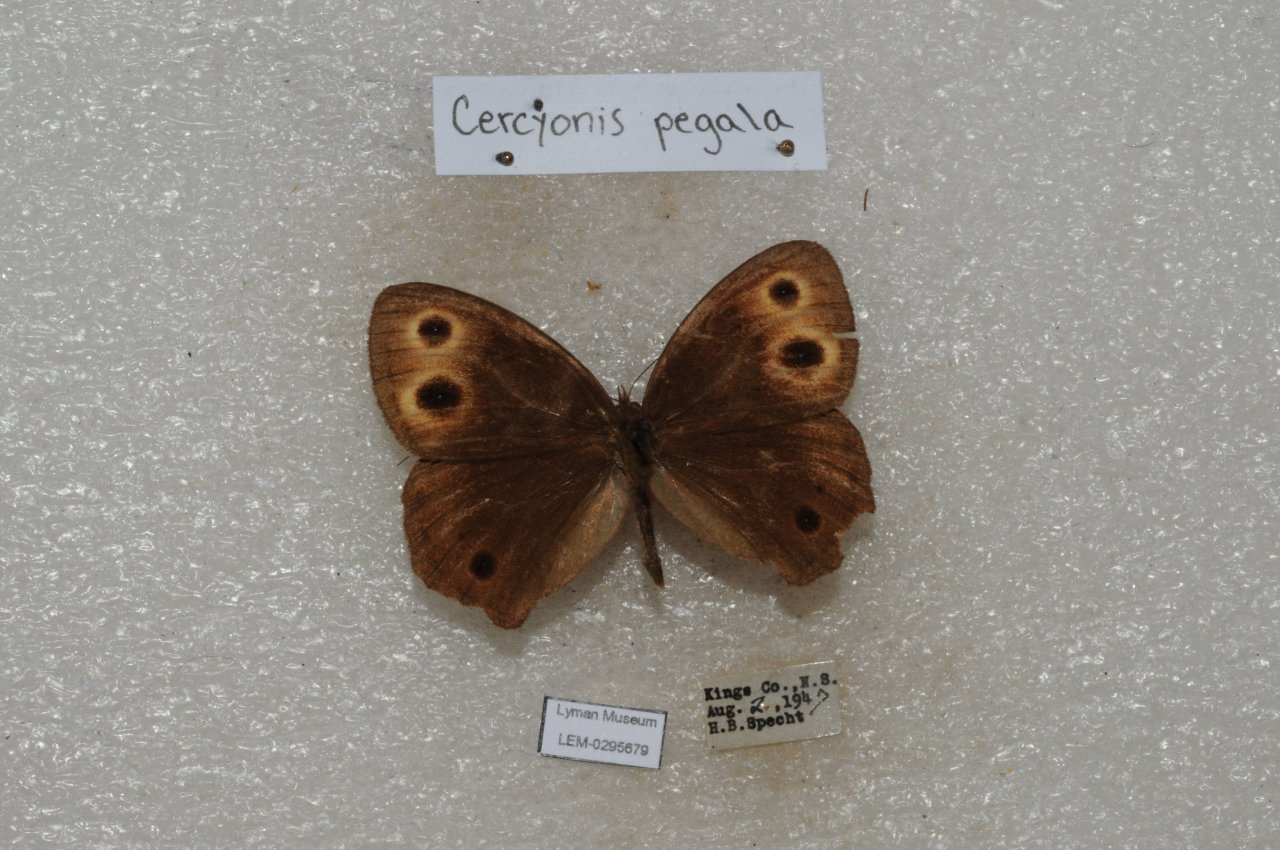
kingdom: Animalia
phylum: Arthropoda
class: Insecta
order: Lepidoptera
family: Nymphalidae
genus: Cercyonis
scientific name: Cercyonis pegala
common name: Common Wood-Nymph
